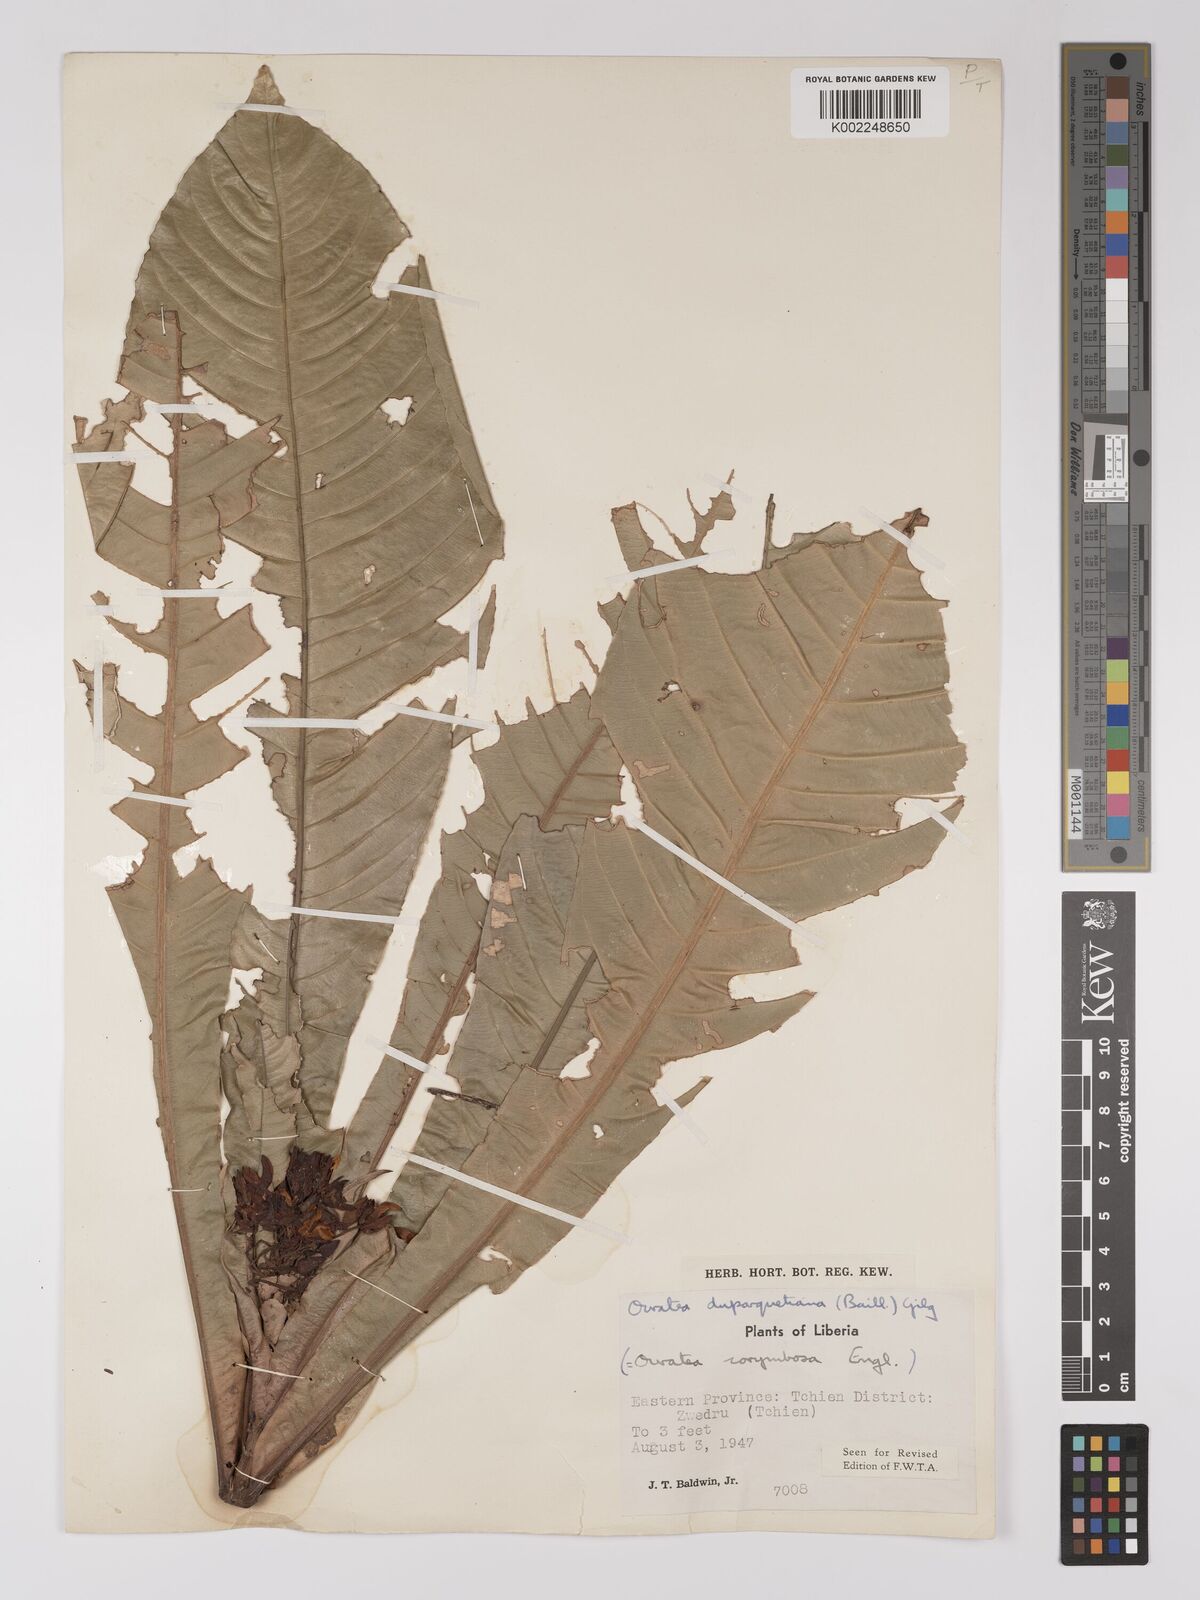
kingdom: Plantae
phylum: Tracheophyta
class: Magnoliopsida
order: Malpighiales
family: Ochnaceae
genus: Campylospermum
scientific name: Campylospermum duparquetianum
